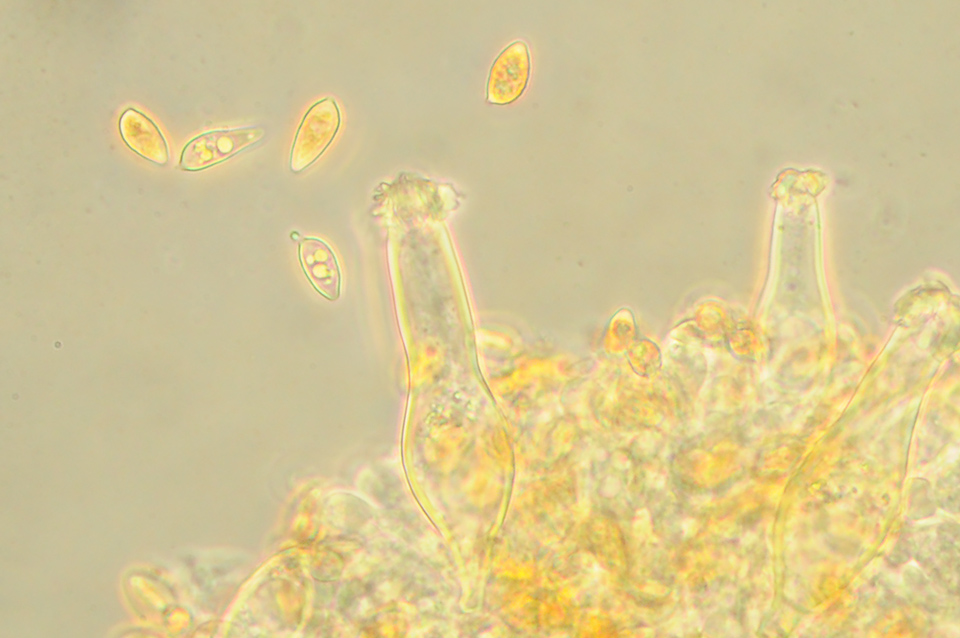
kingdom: Fungi
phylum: Basidiomycota
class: Agaricomycetes
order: Agaricales
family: Hymenogastraceae
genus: Galerina
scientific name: Galerina nana
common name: dværg-hjelmhat
